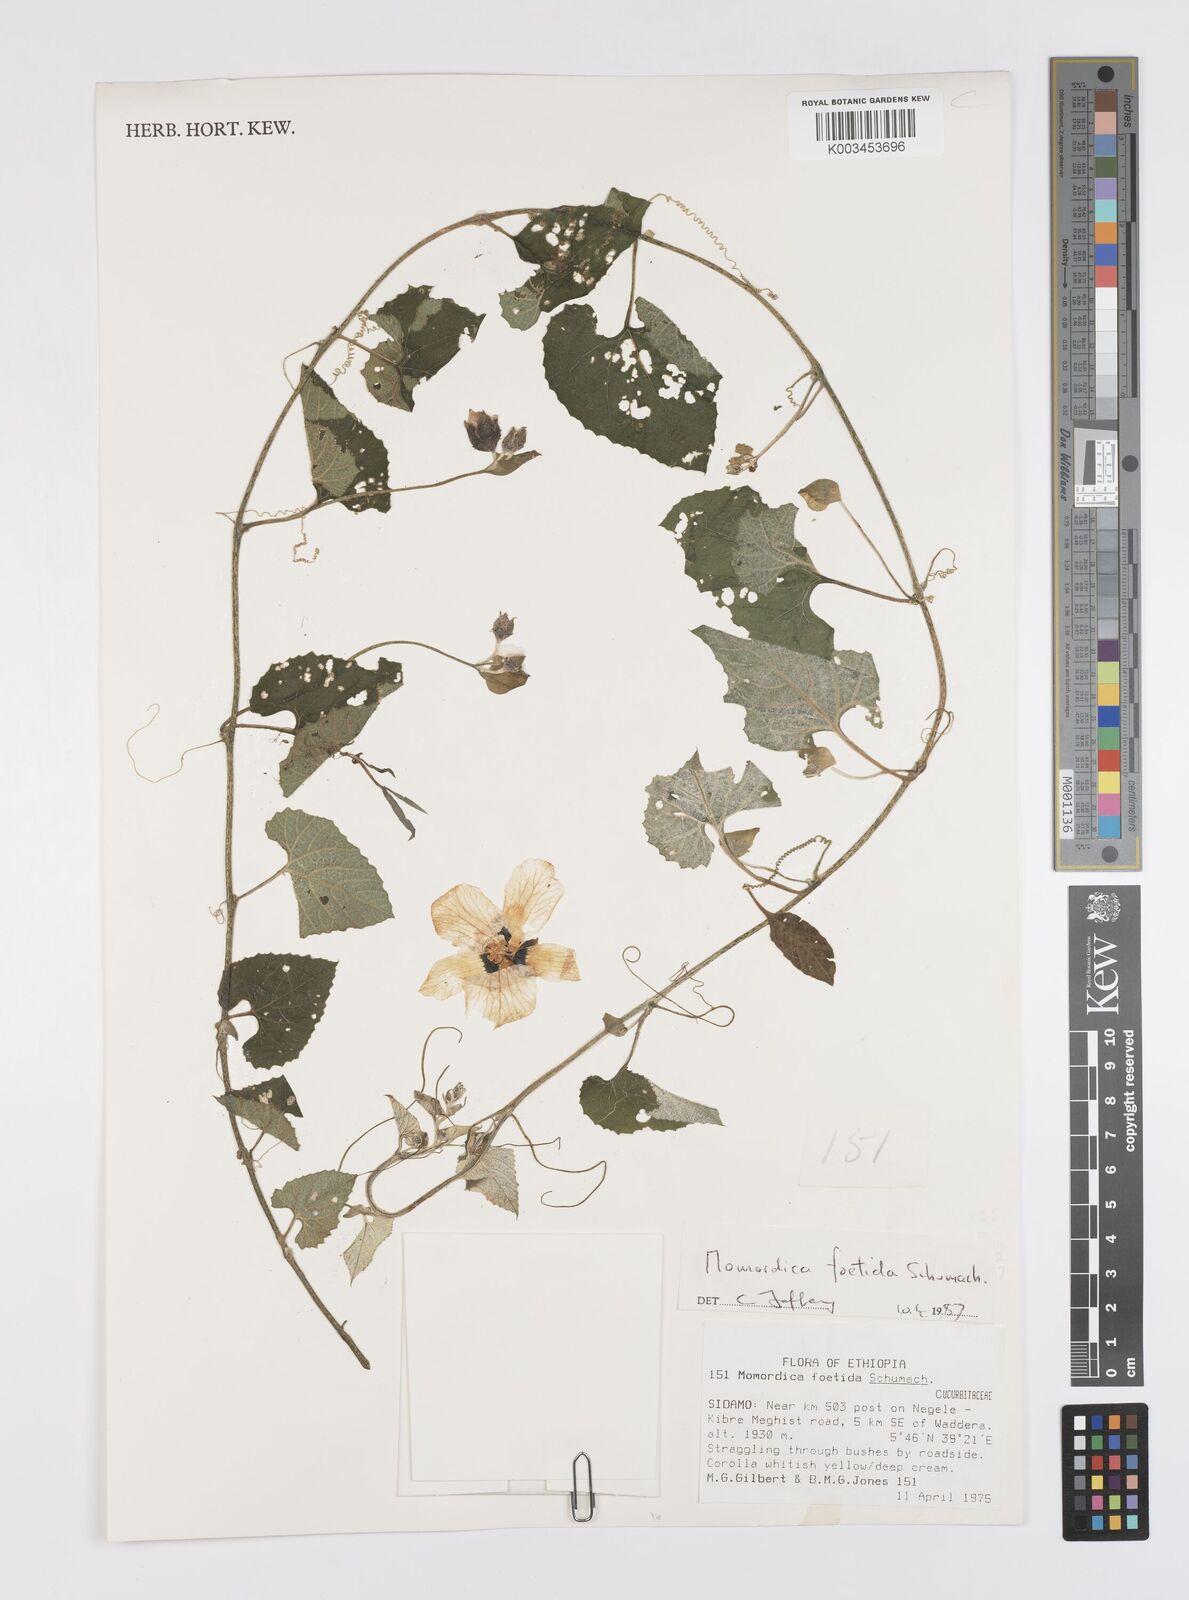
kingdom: Plantae
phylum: Tracheophyta
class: Magnoliopsida
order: Cucurbitales
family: Cucurbitaceae
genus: Momordica
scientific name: Momordica foetida
